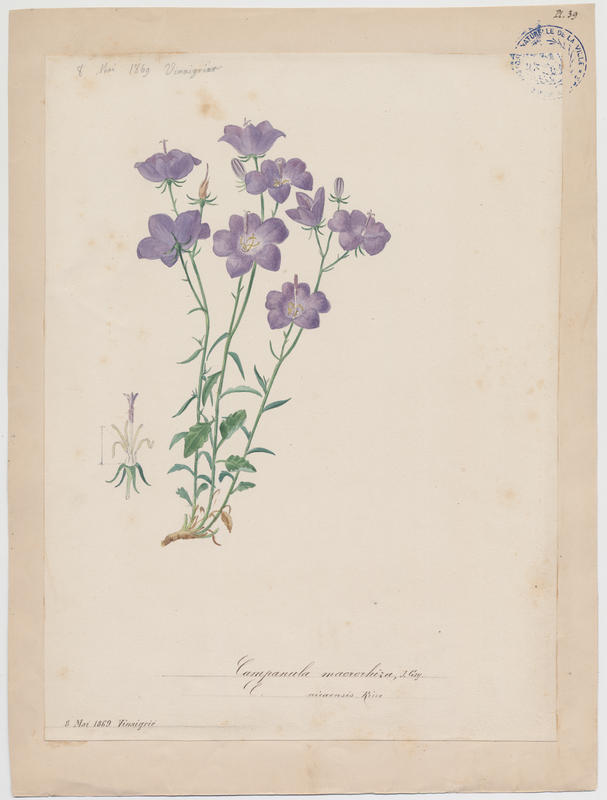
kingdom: Plantae
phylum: Tracheophyta
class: Magnoliopsida
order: Asterales
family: Campanulaceae
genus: Campanula
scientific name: Campanula macrorhiza
